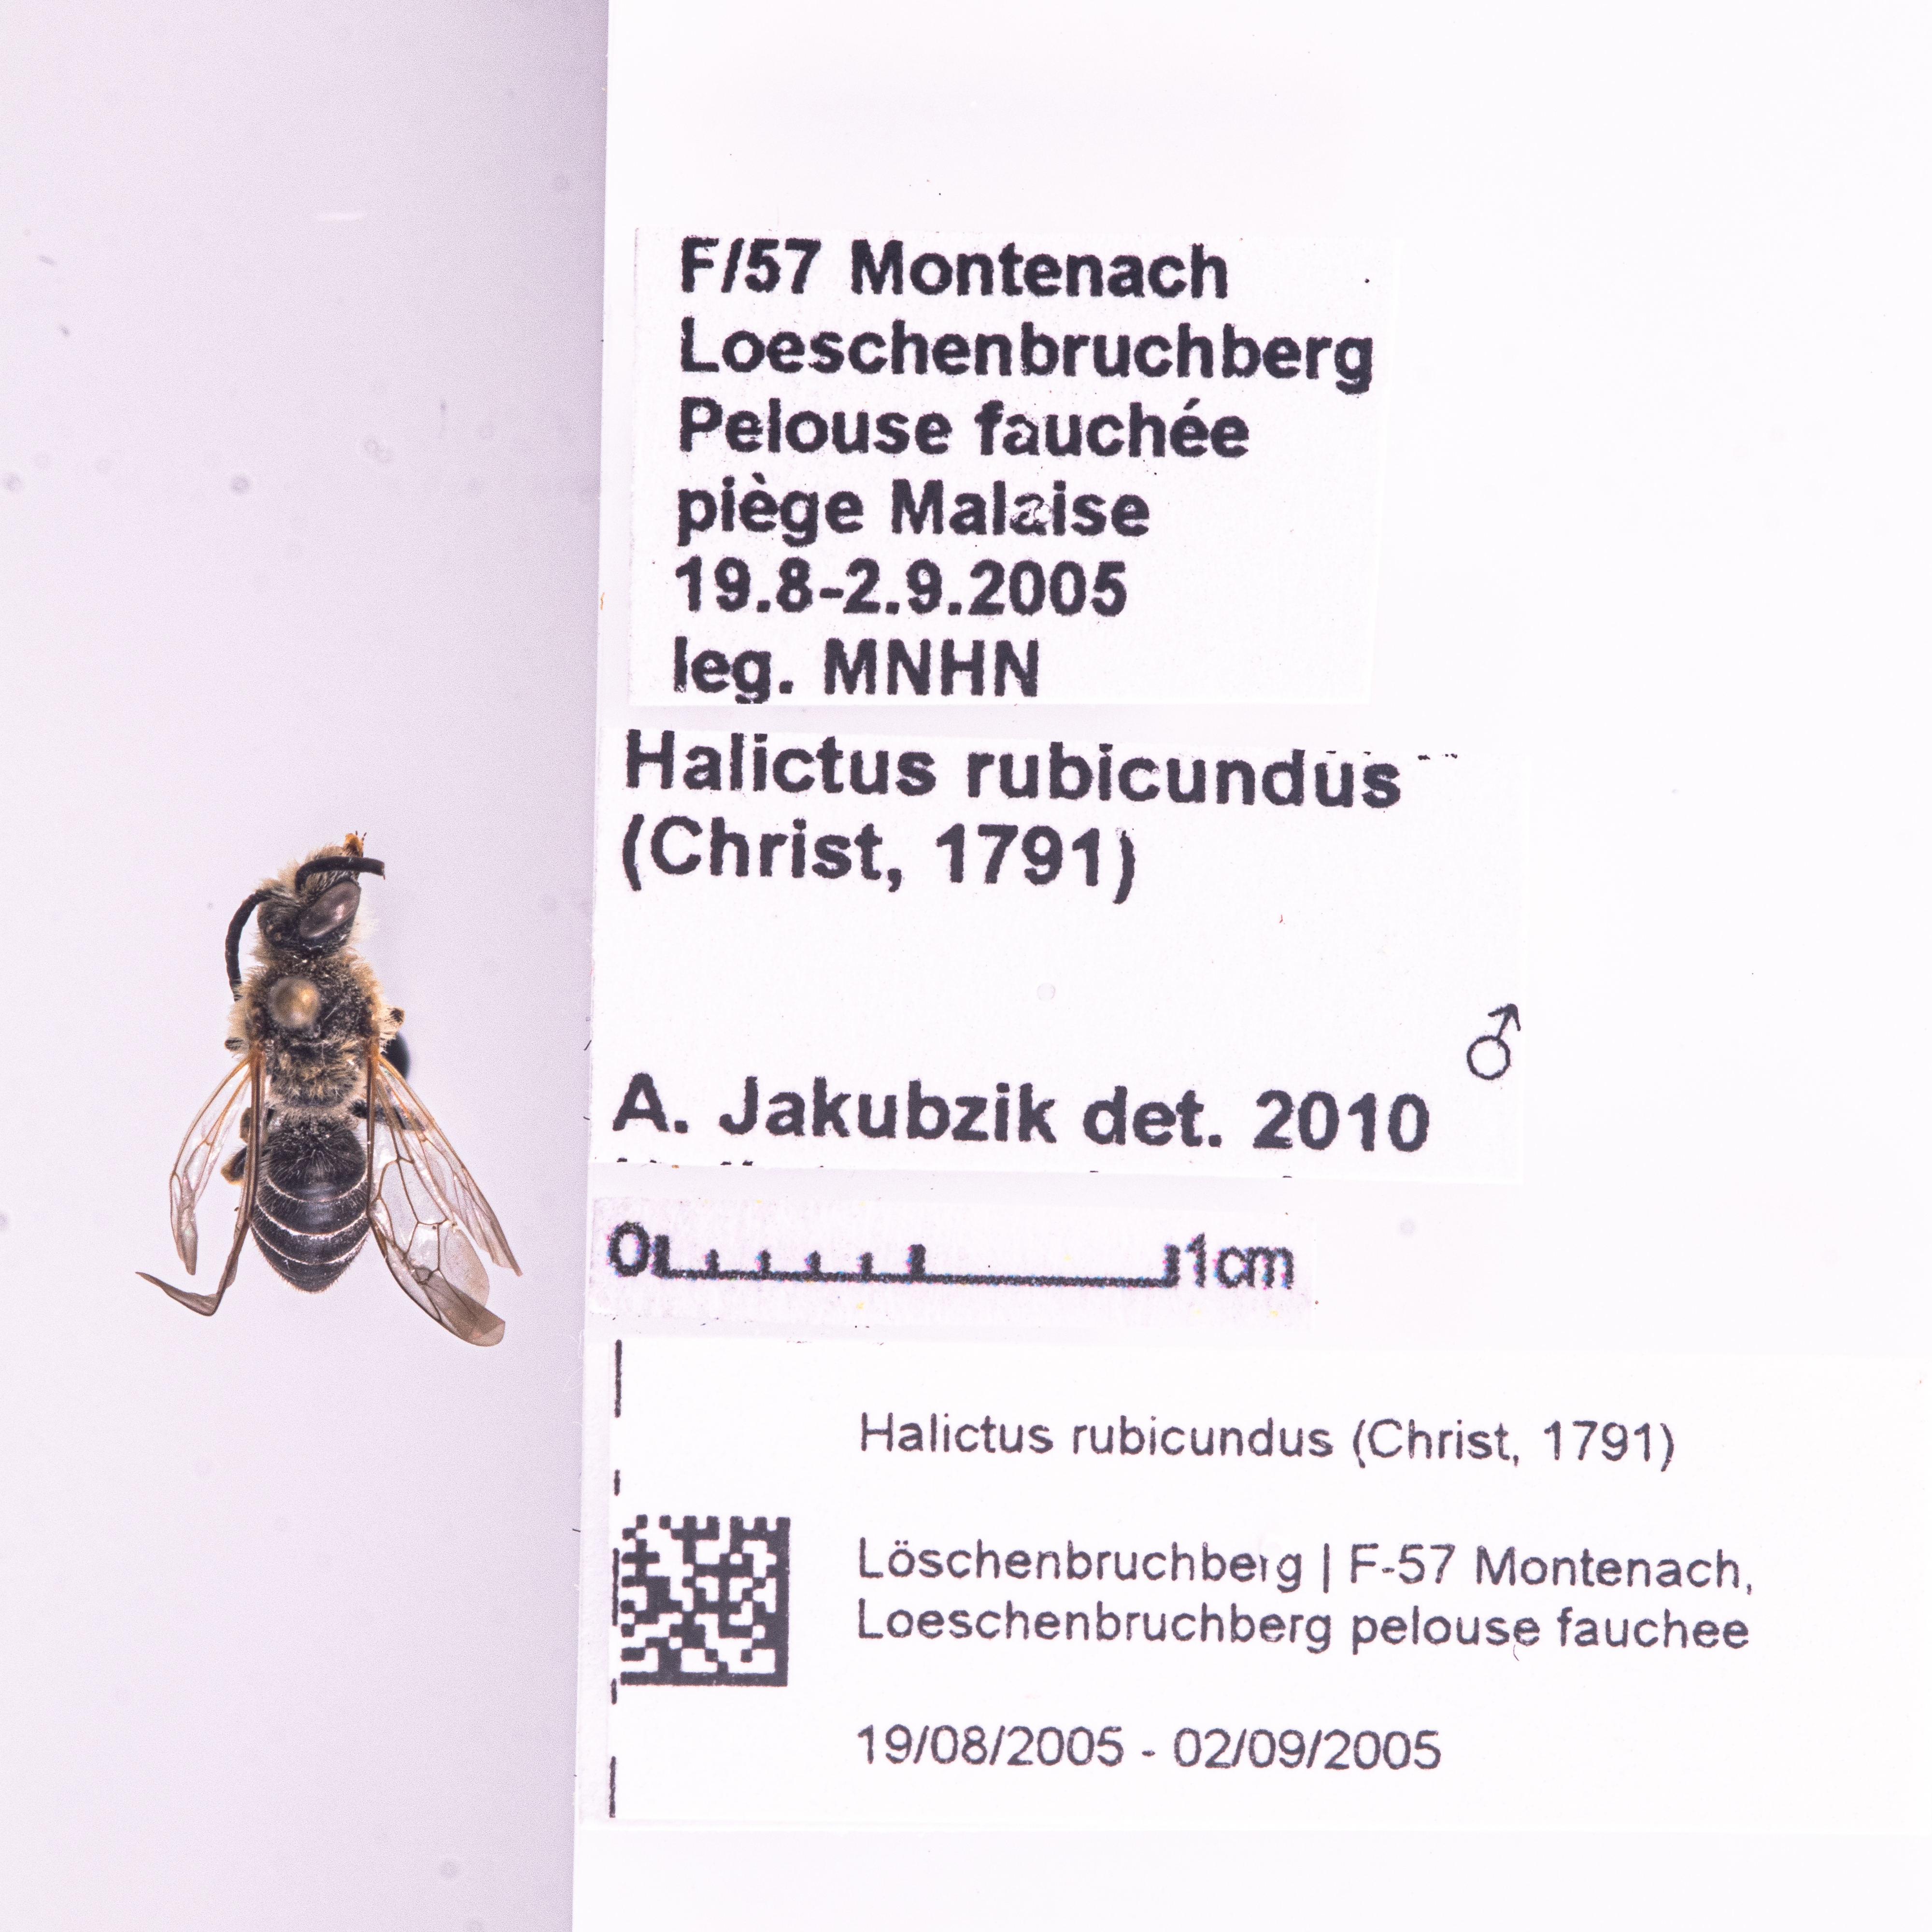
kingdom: Animalia
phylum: Arthropoda
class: Insecta
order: Hymenoptera
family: Halictidae
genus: Halictus
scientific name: Halictus rubicundus
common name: Orange-legged furrow bee
